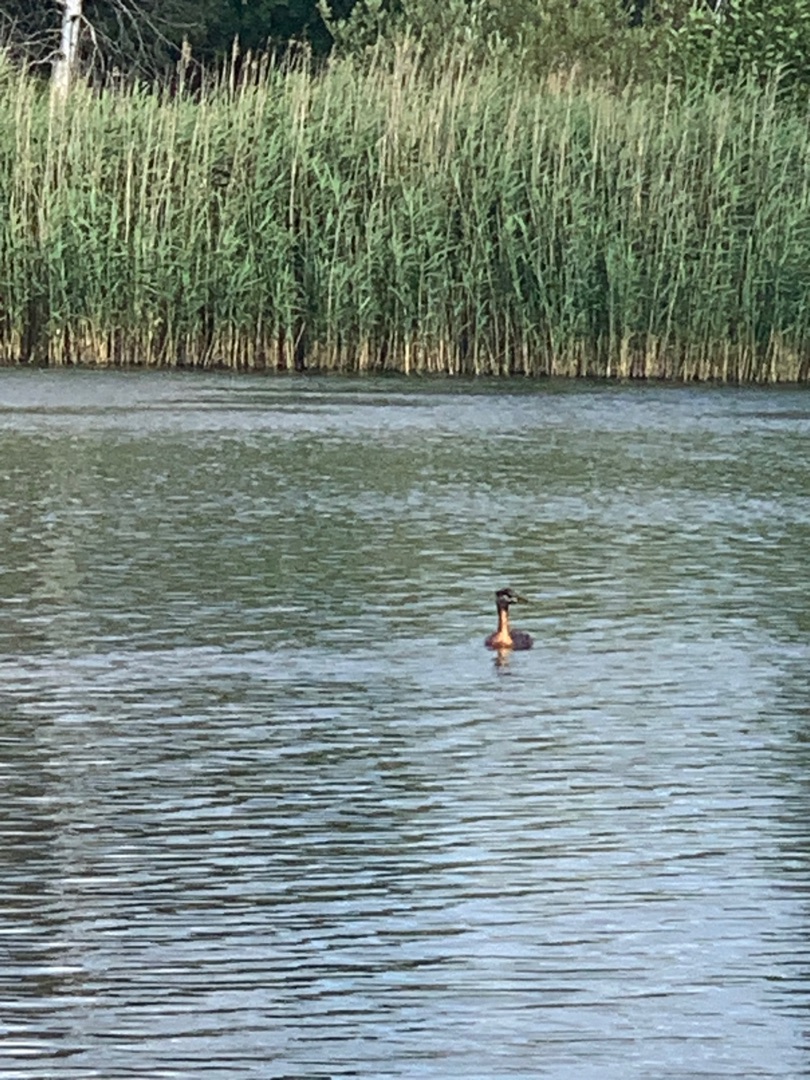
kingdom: Animalia
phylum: Chordata
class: Aves
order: Podicipediformes
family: Podicipedidae
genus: Podiceps
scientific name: Podiceps grisegena
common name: Gråstrubet lappedykker
